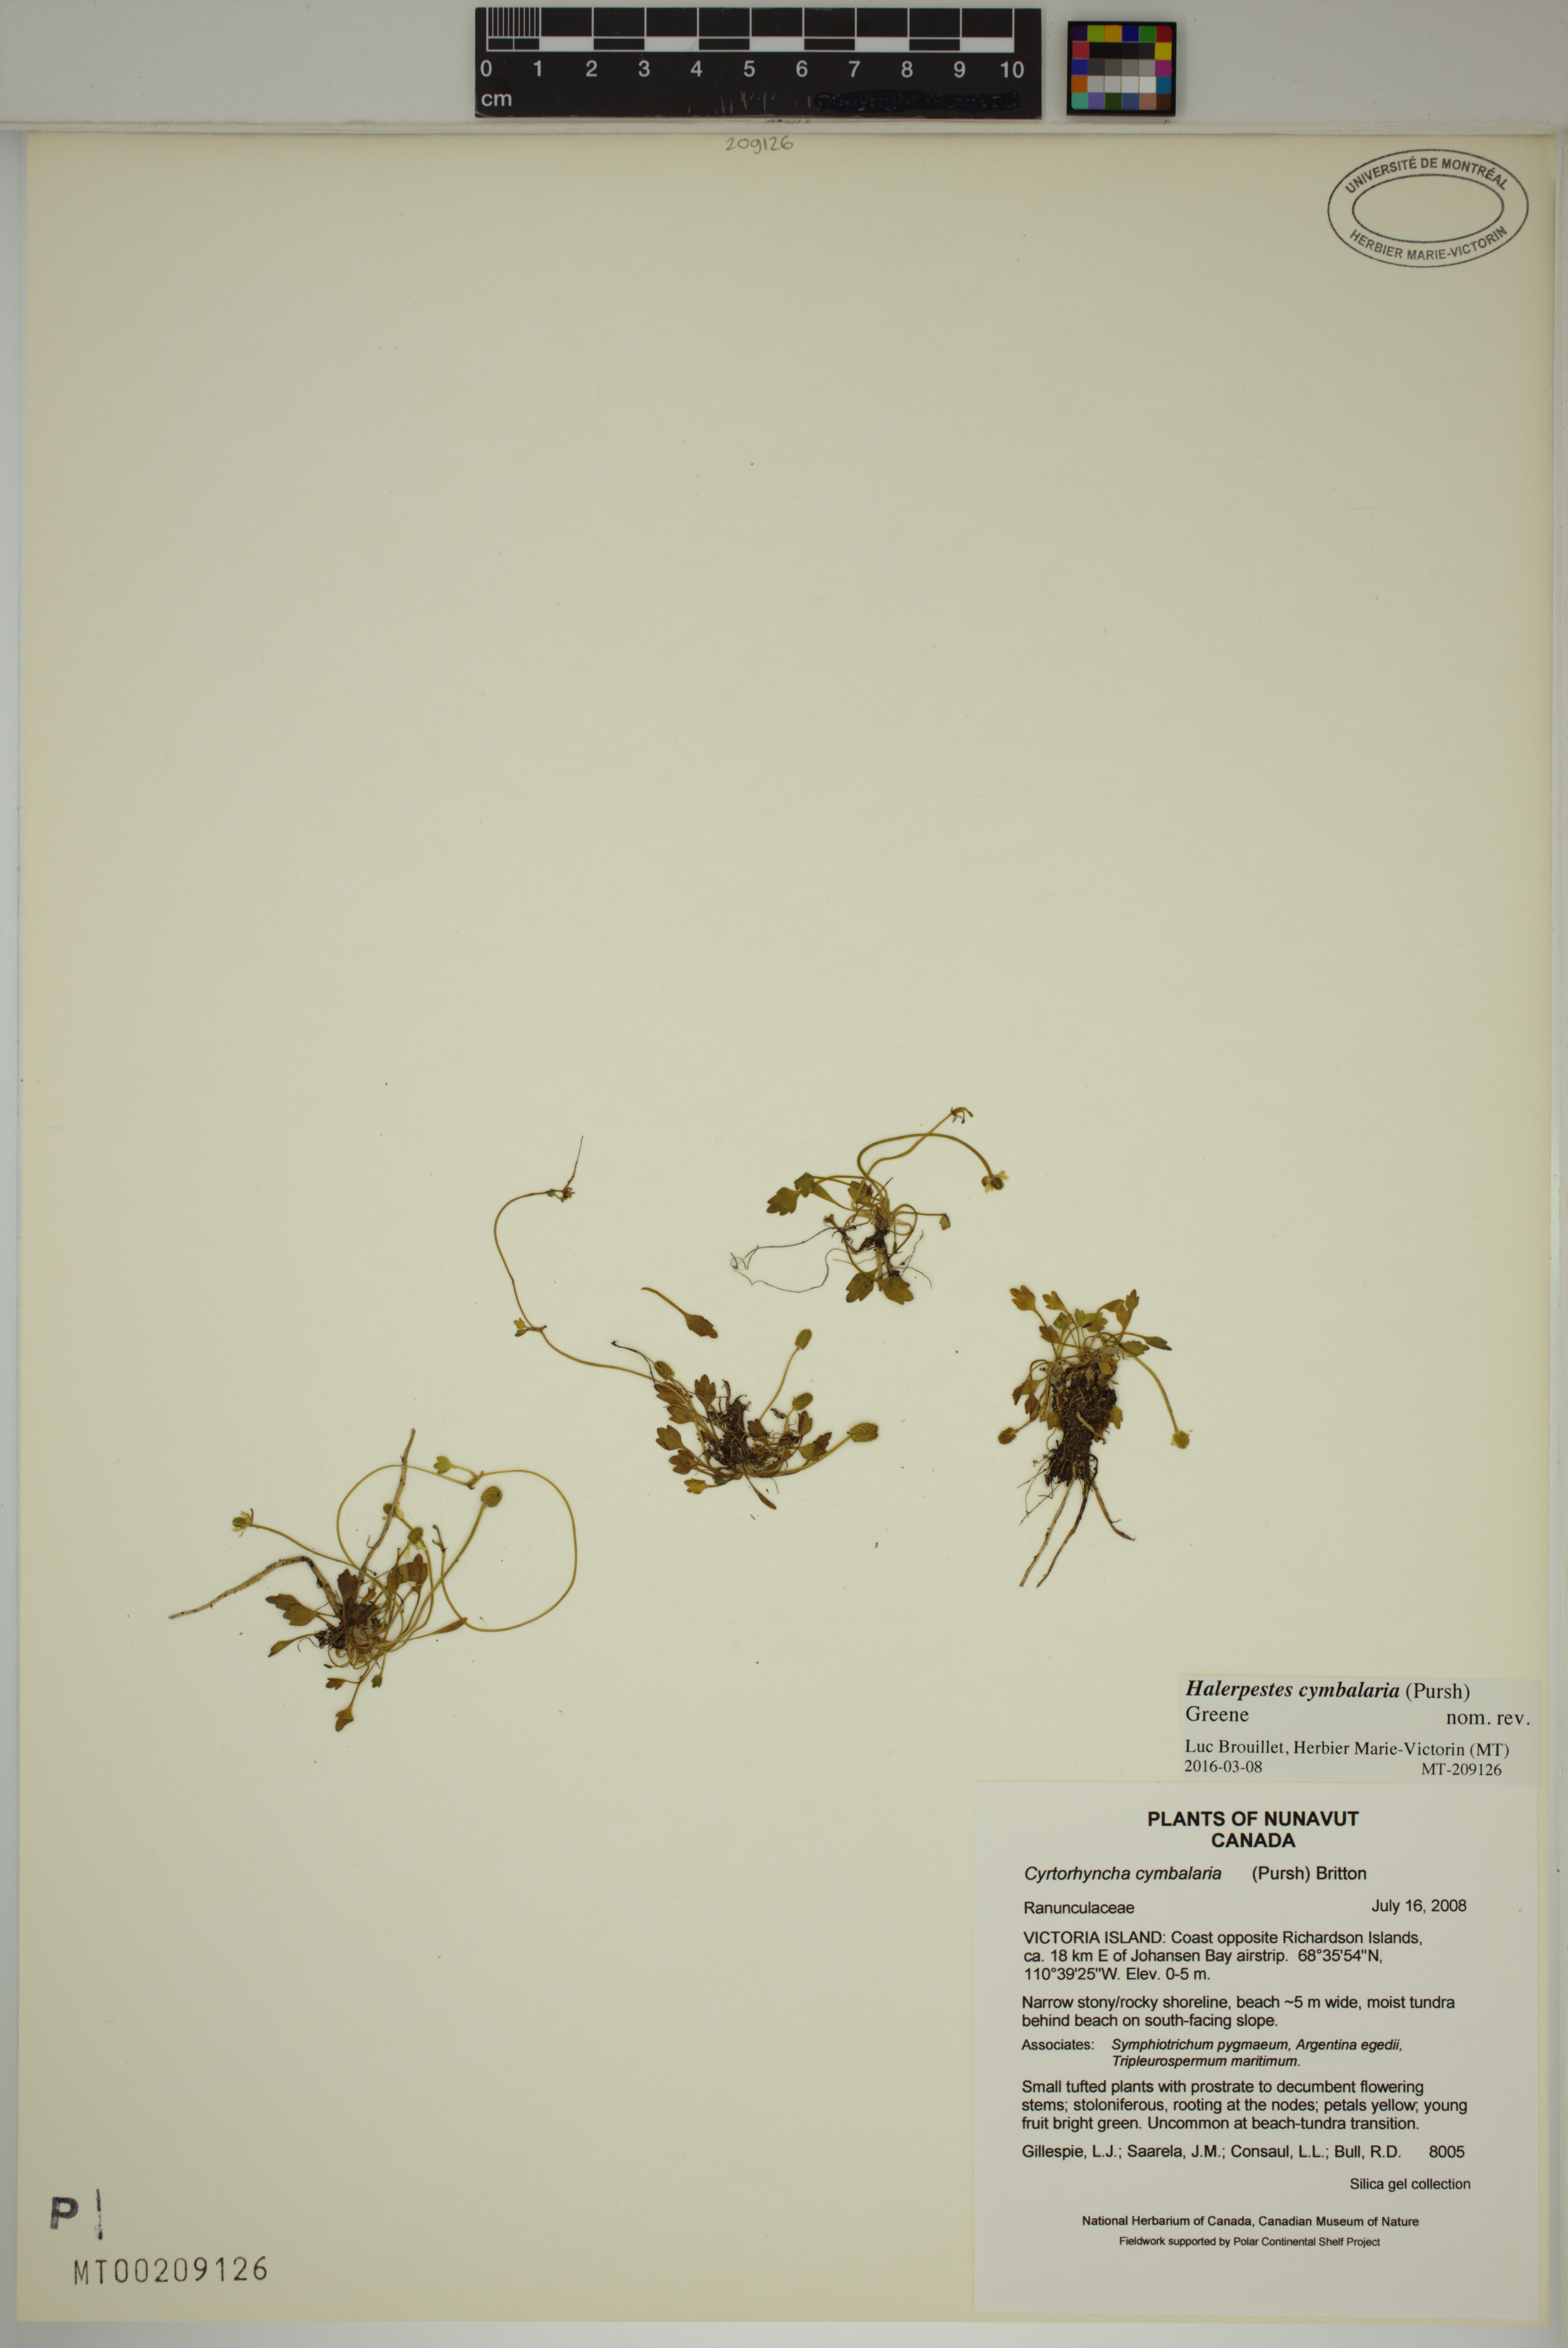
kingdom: Plantae
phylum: Tracheophyta
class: Magnoliopsida
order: Ranunculales
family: Ranunculaceae
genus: Halerpestes
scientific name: Halerpestes cymbalaria
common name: Seaside crowfoot
